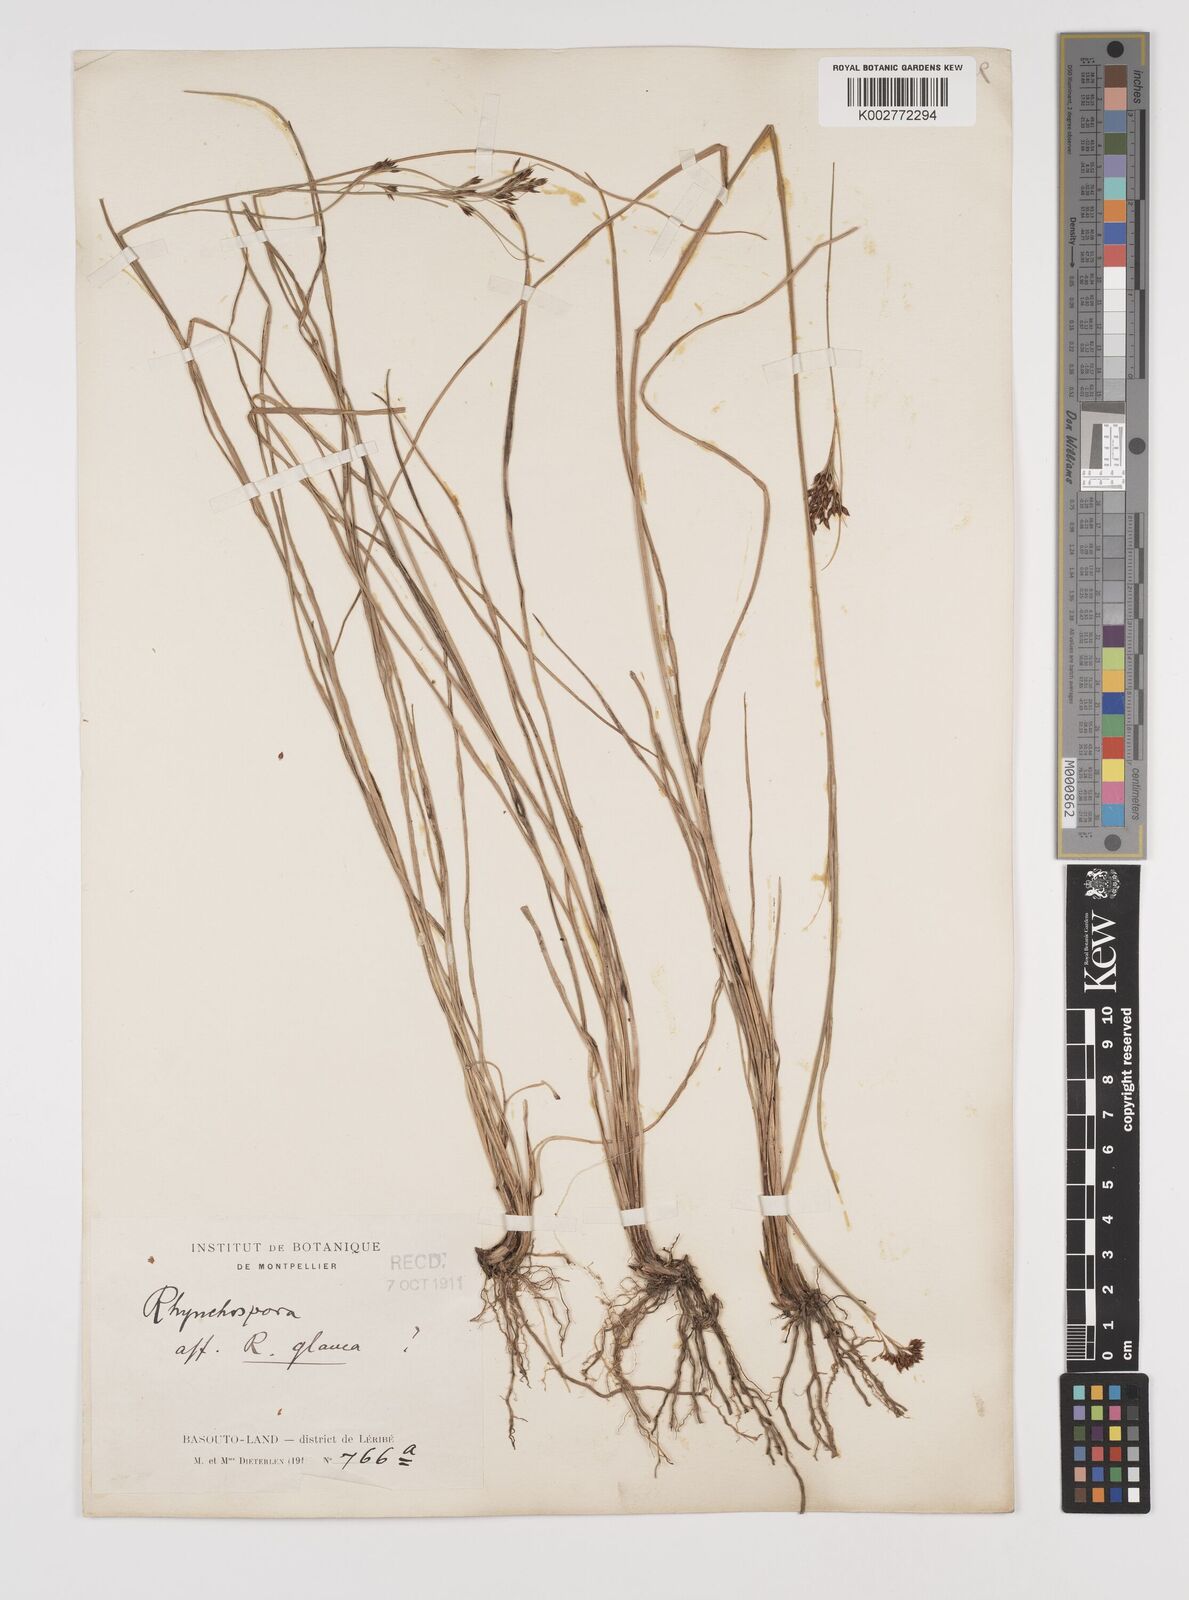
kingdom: Plantae
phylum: Tracheophyta
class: Liliopsida
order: Poales
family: Cyperaceae
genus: Rhynchospora
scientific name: Rhynchospora rugosa
